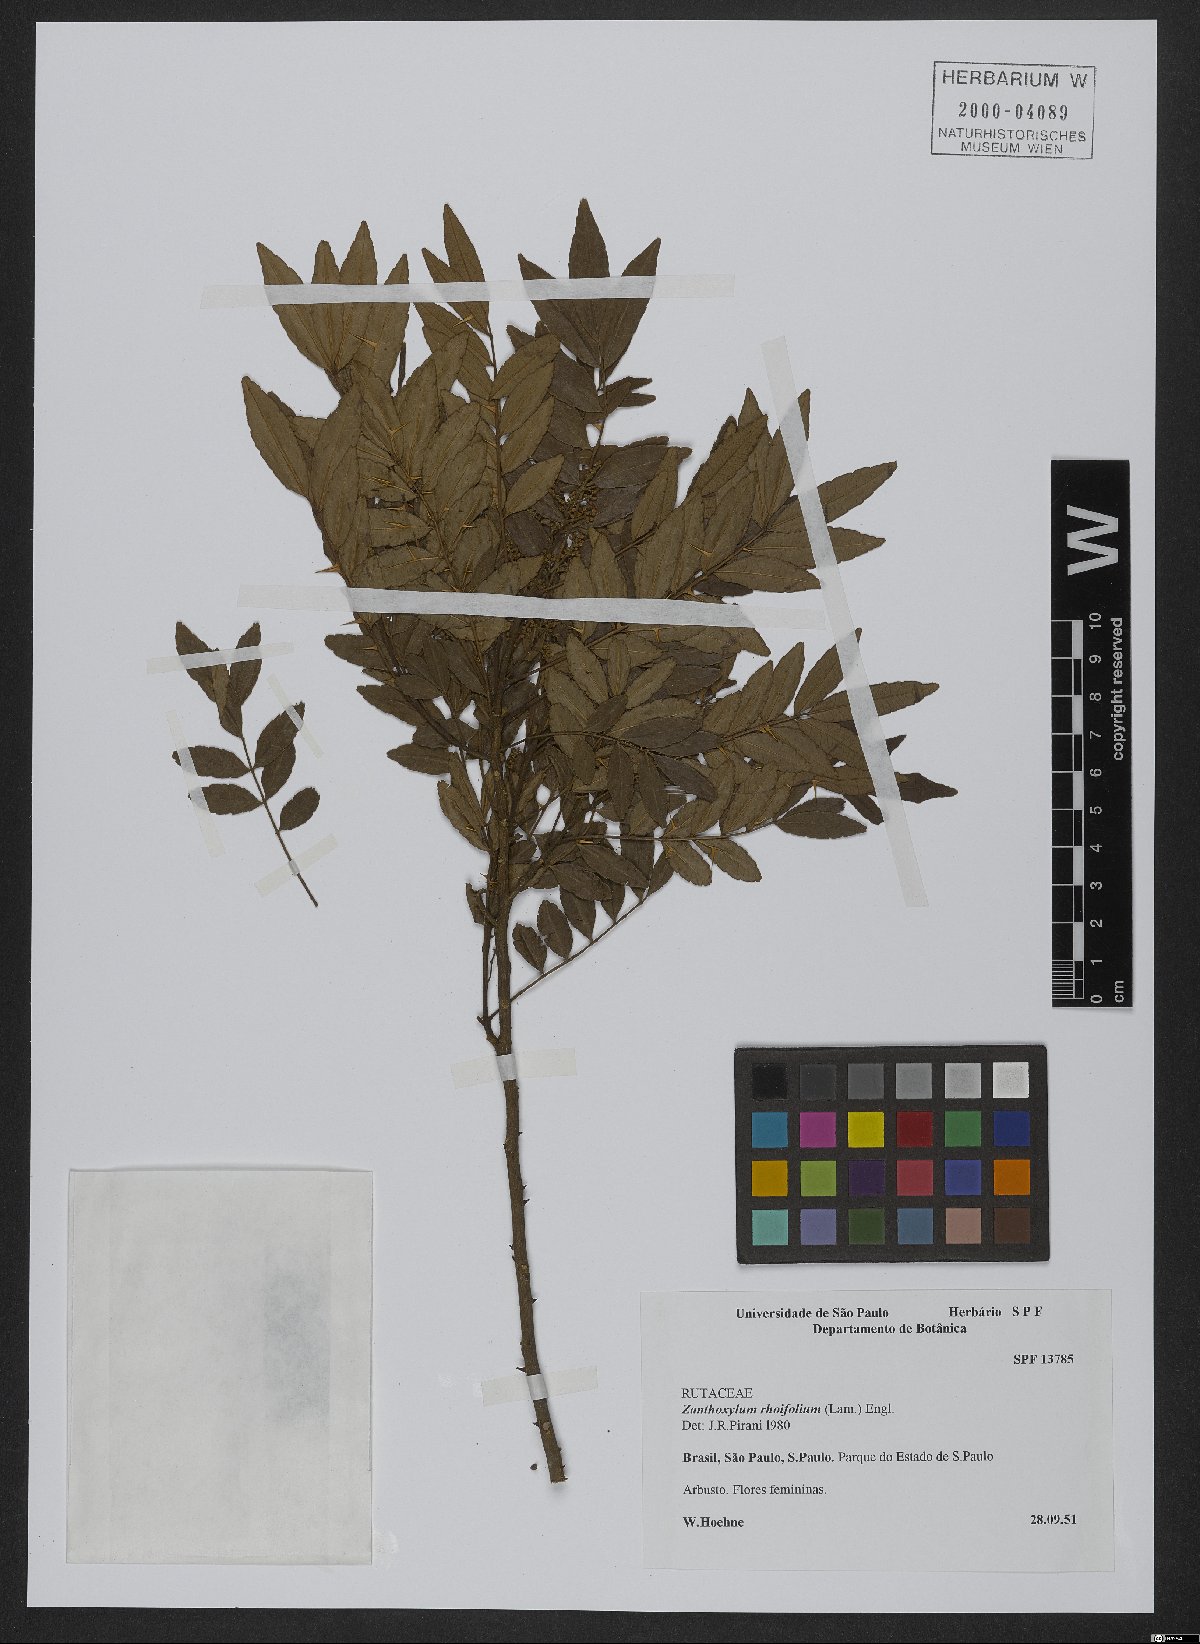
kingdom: Plantae
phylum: Tracheophyta
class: Magnoliopsida
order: Sapindales
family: Rutaceae
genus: Zanthoxylum
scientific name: Zanthoxylum rhoifolium
